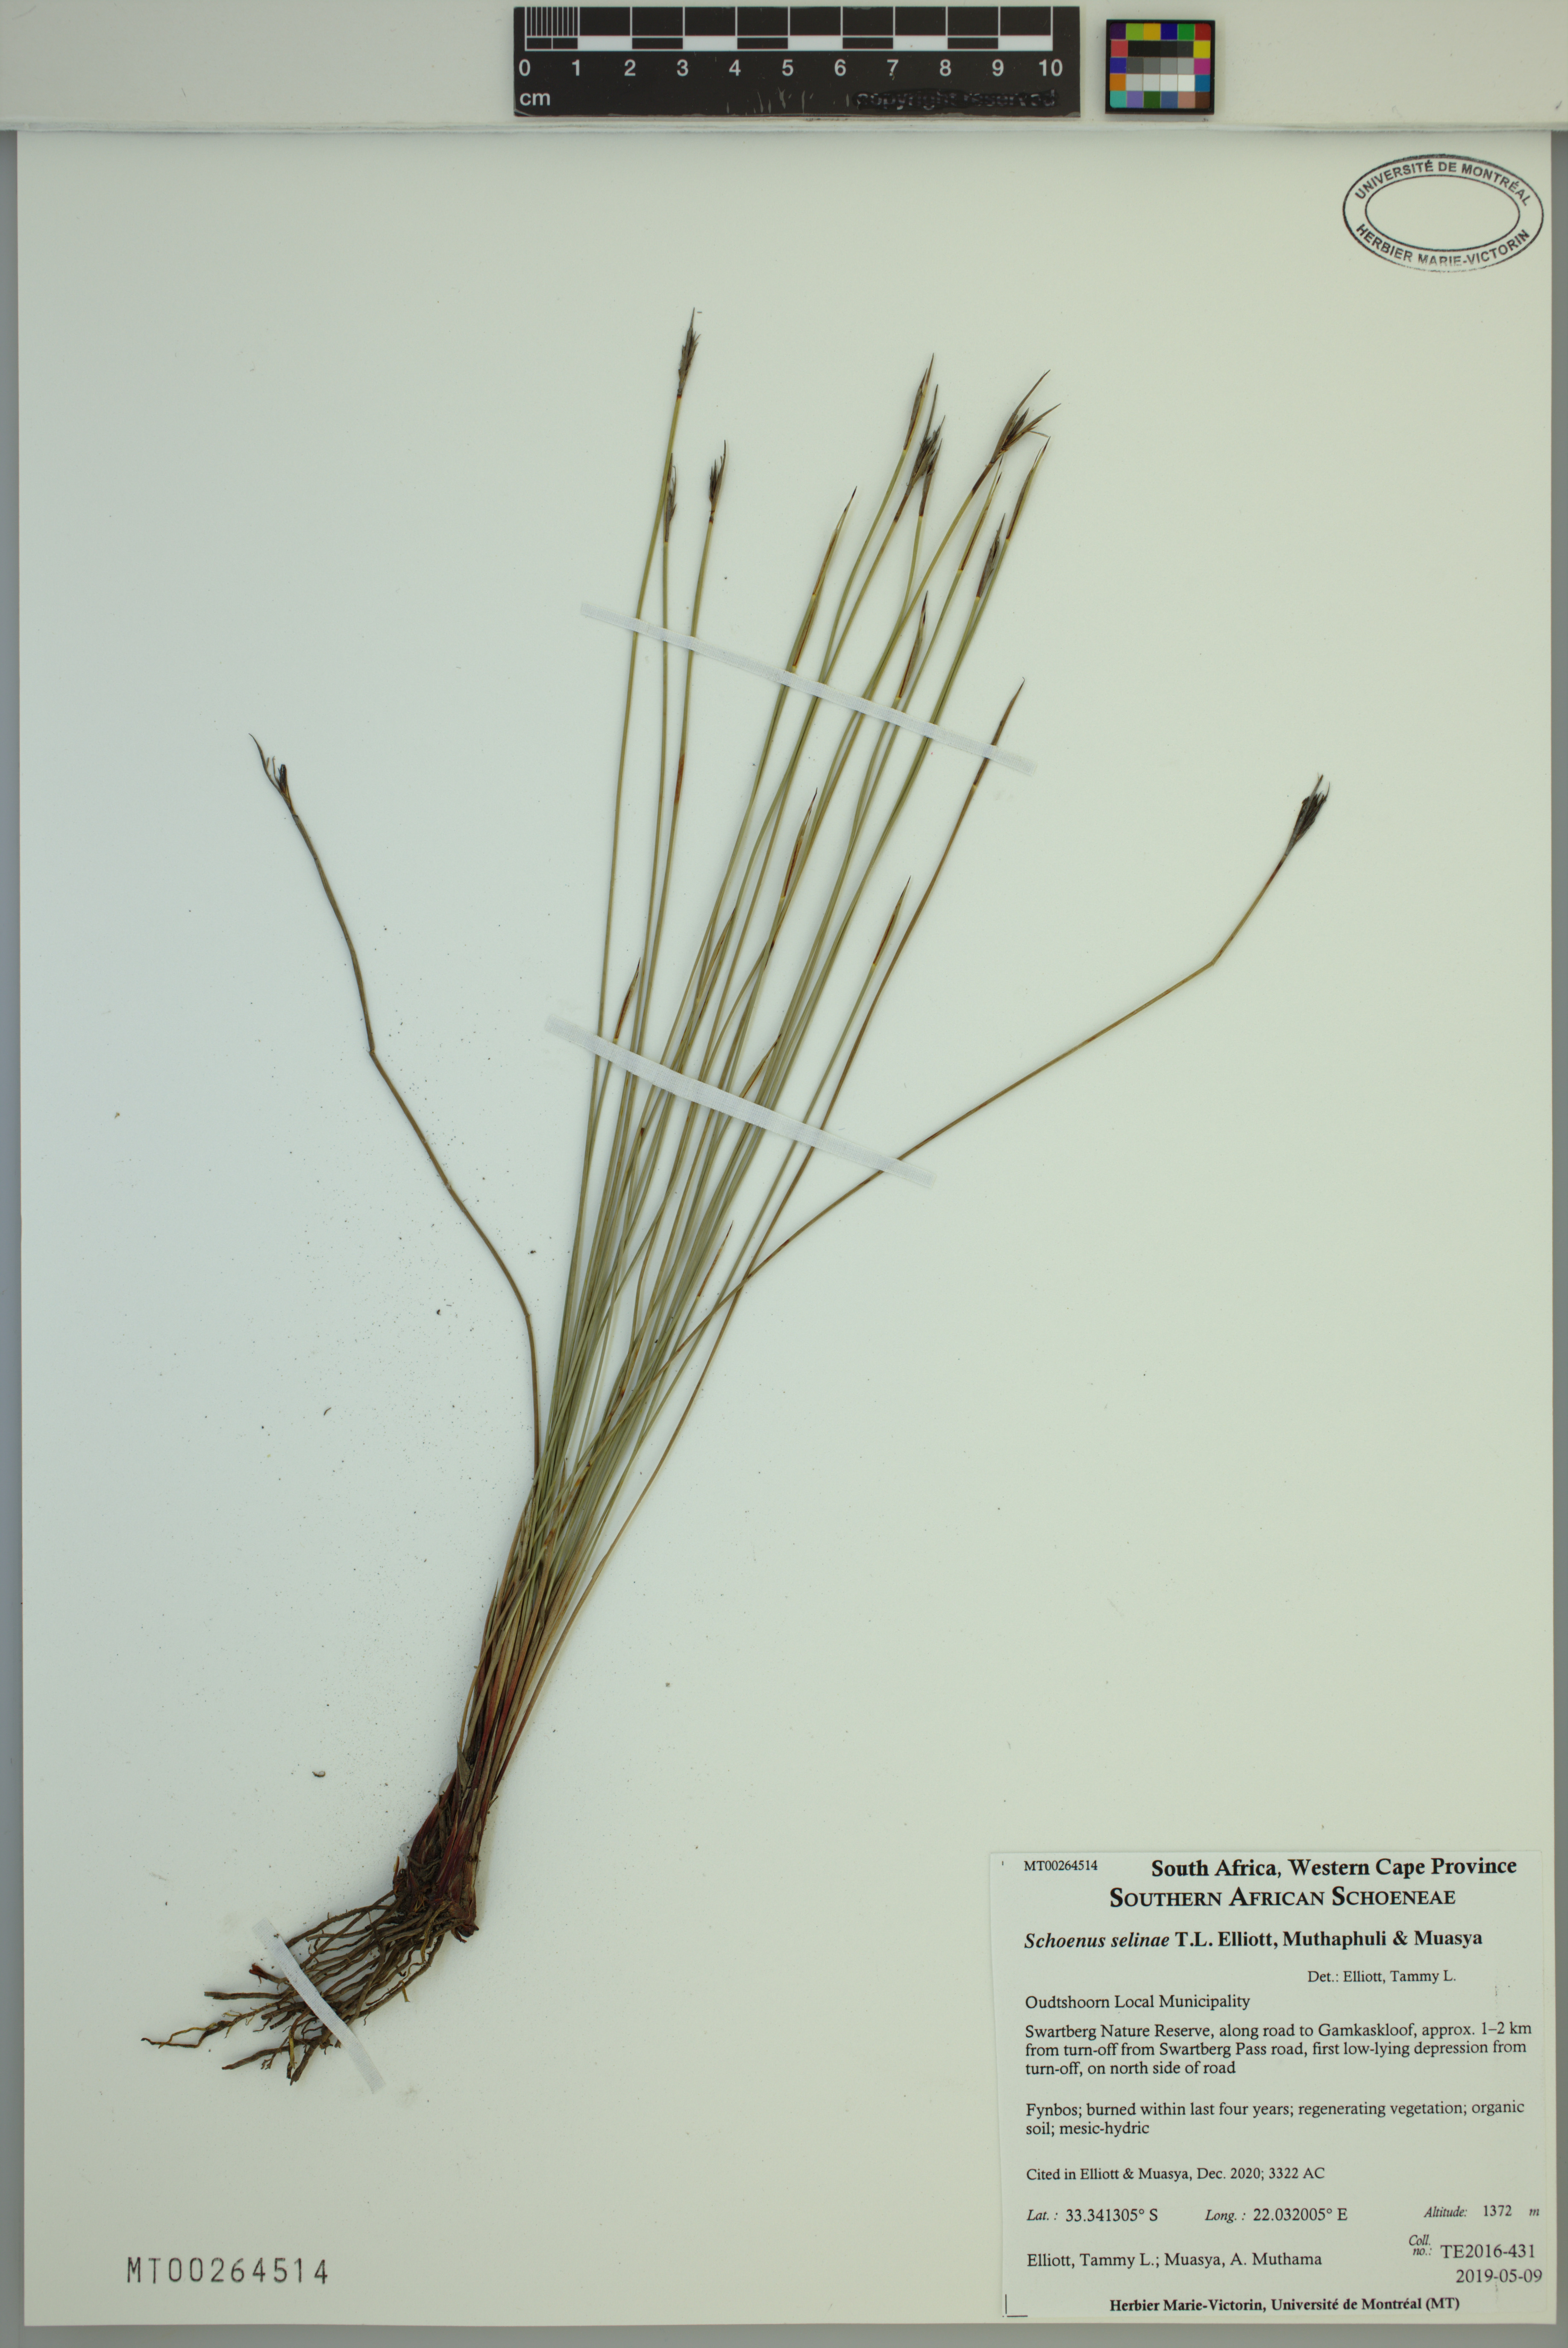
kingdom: Plantae
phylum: Tracheophyta
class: Liliopsida
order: Poales
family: Cyperaceae
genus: Schoenus
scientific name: Schoenus selinae
